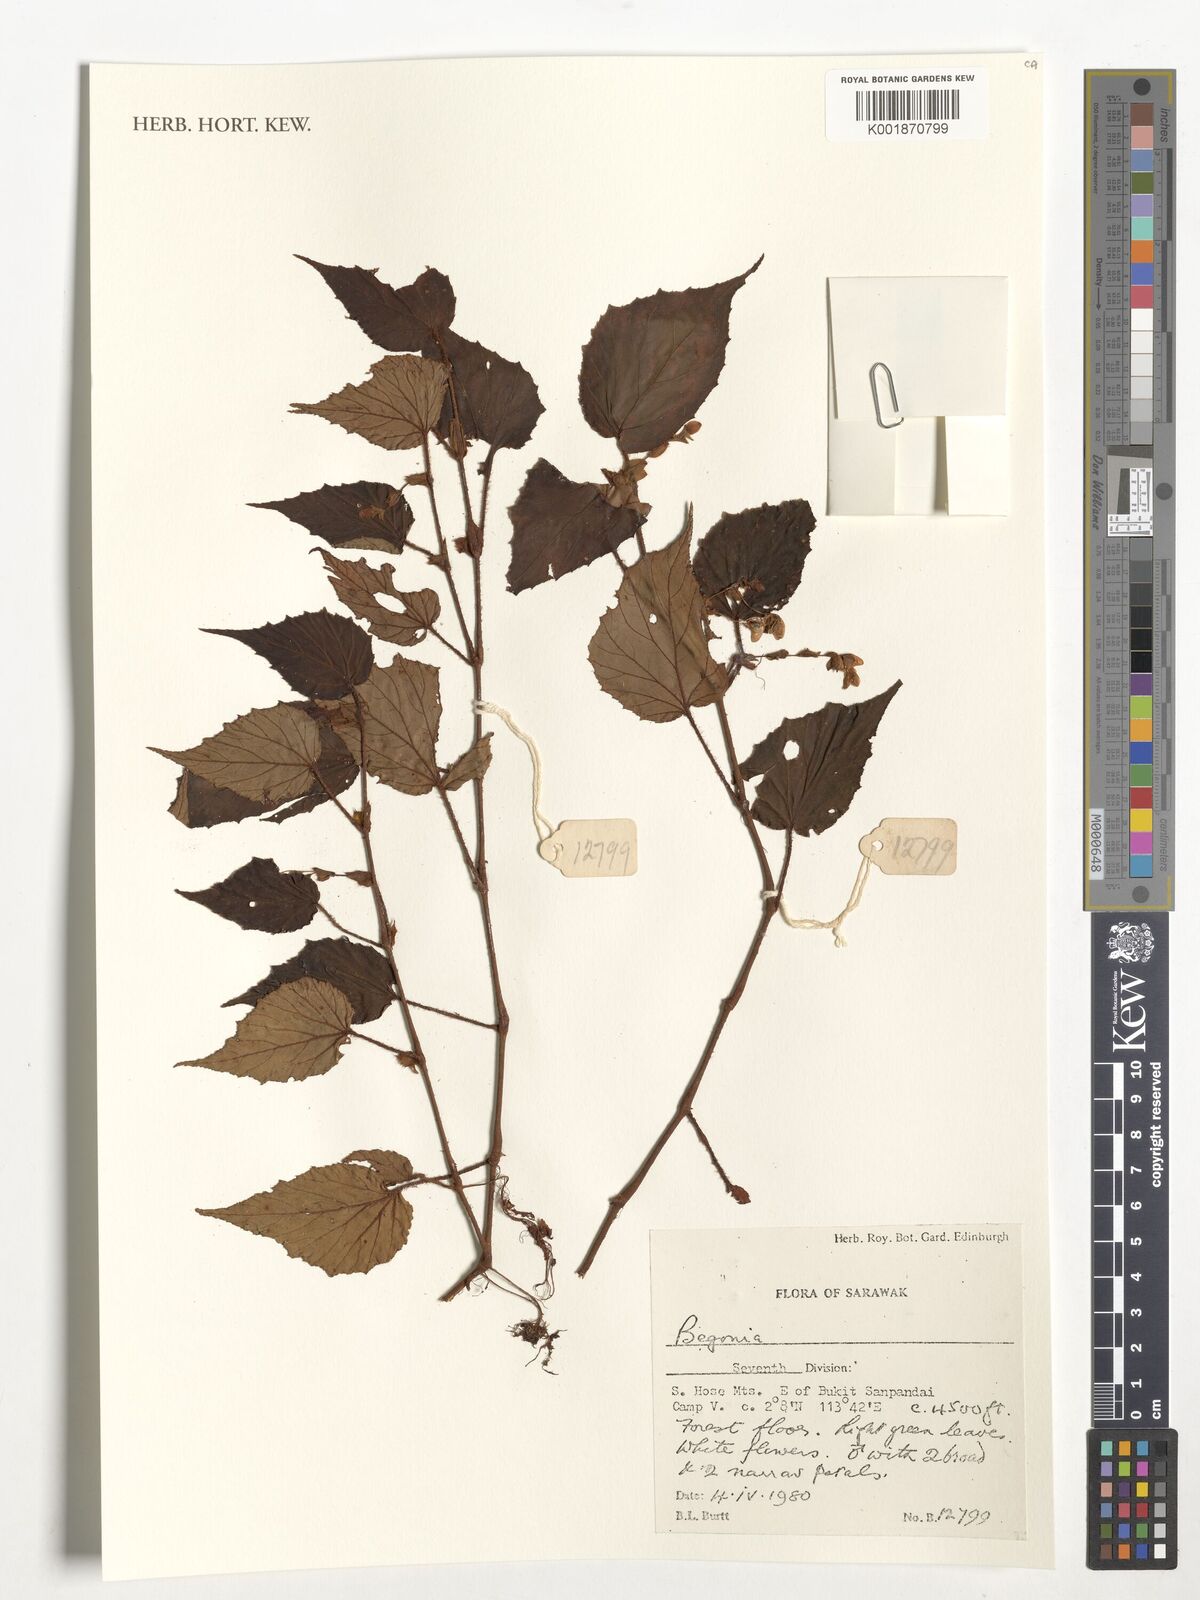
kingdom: Plantae
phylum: Tracheophyta
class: Magnoliopsida
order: Cucurbitales
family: Begoniaceae
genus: Begonia
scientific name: Begonia
